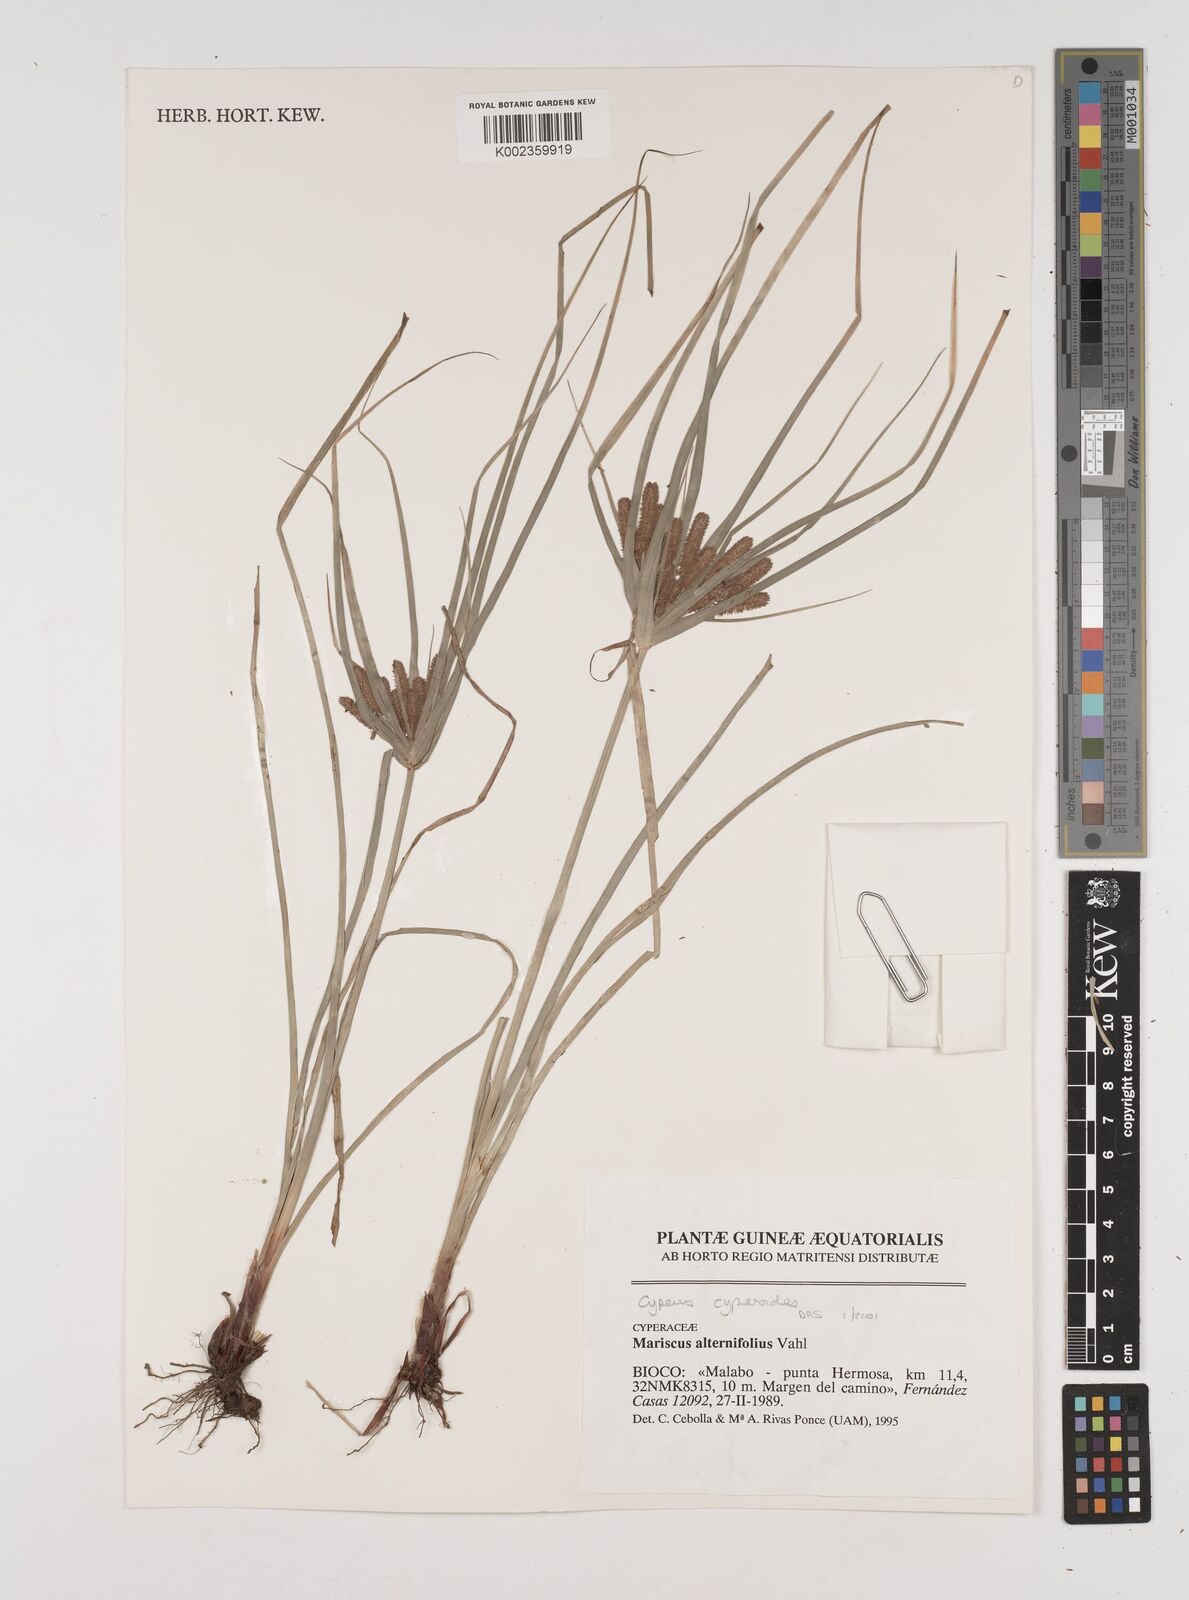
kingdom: Plantae
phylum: Tracheophyta
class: Liliopsida
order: Poales
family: Cyperaceae
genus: Cyperus
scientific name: Cyperus cyperoides
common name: Pacific island flat sedge
